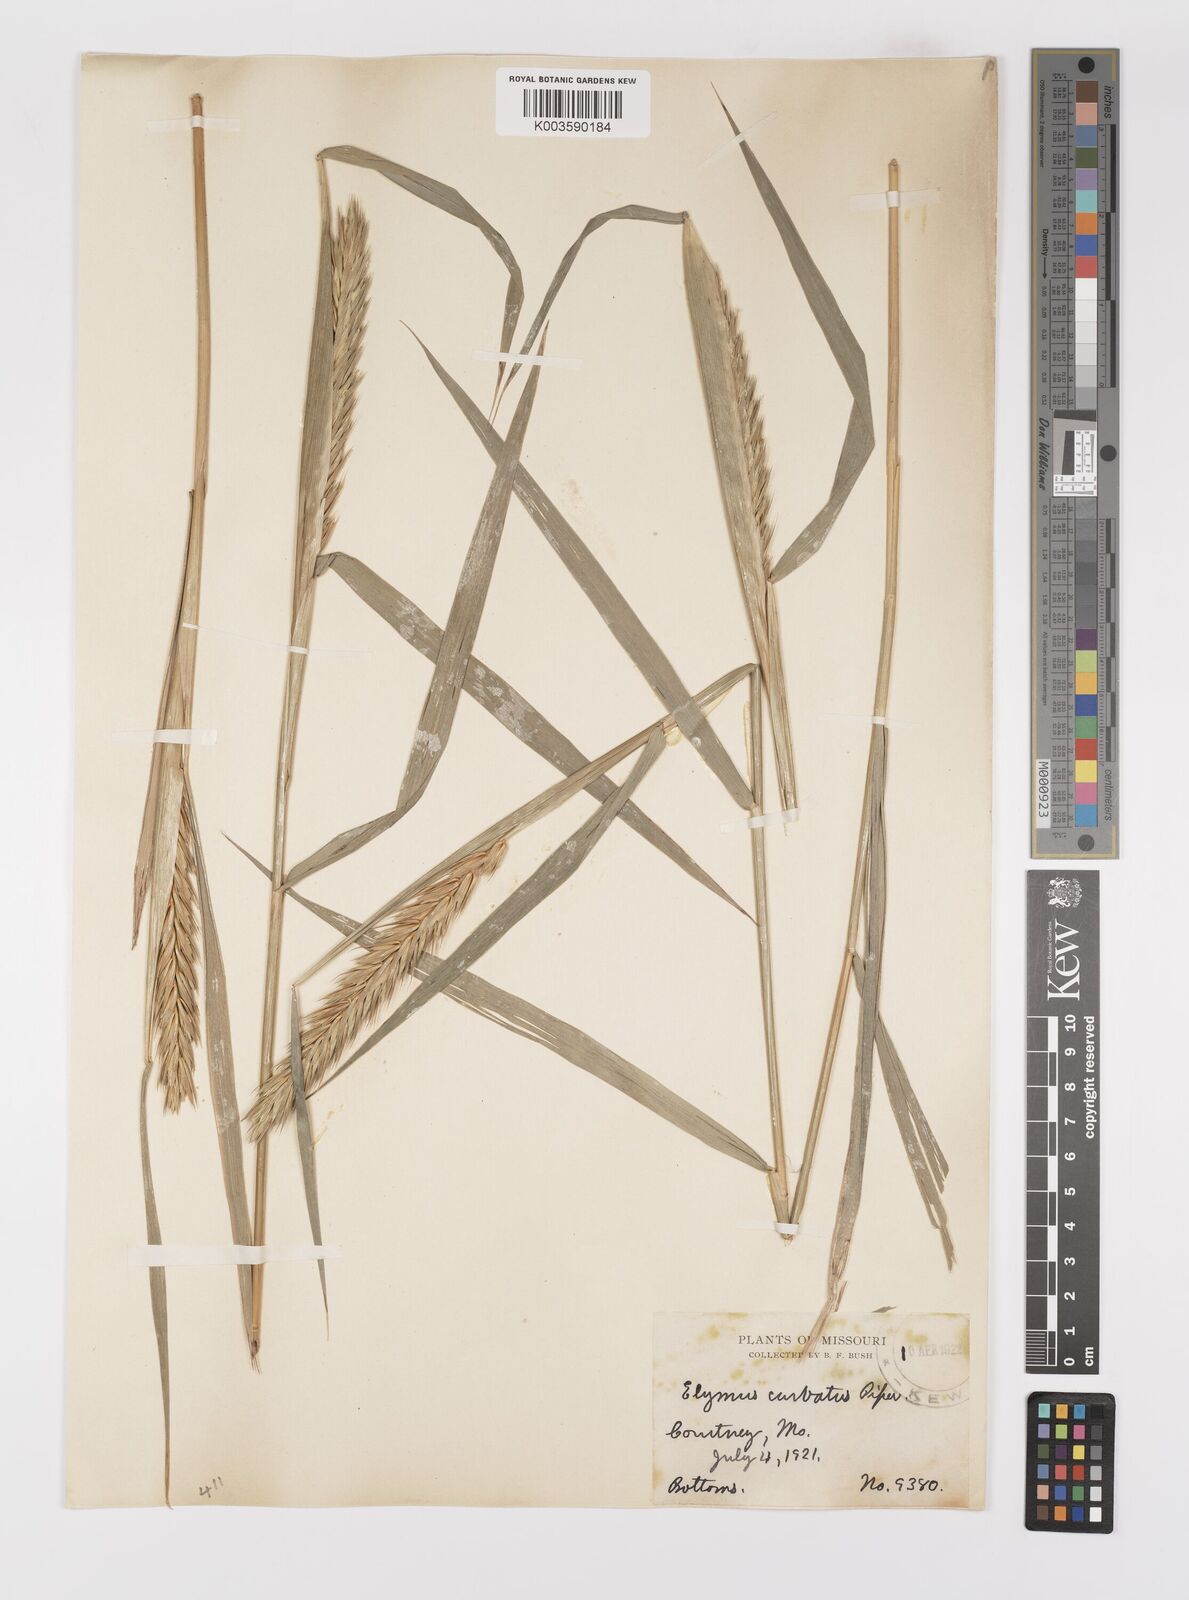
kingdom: Plantae
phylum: Tracheophyta
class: Liliopsida
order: Poales
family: Poaceae
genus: Elymus
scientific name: Elymus curvatus
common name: Awnless wild rye
